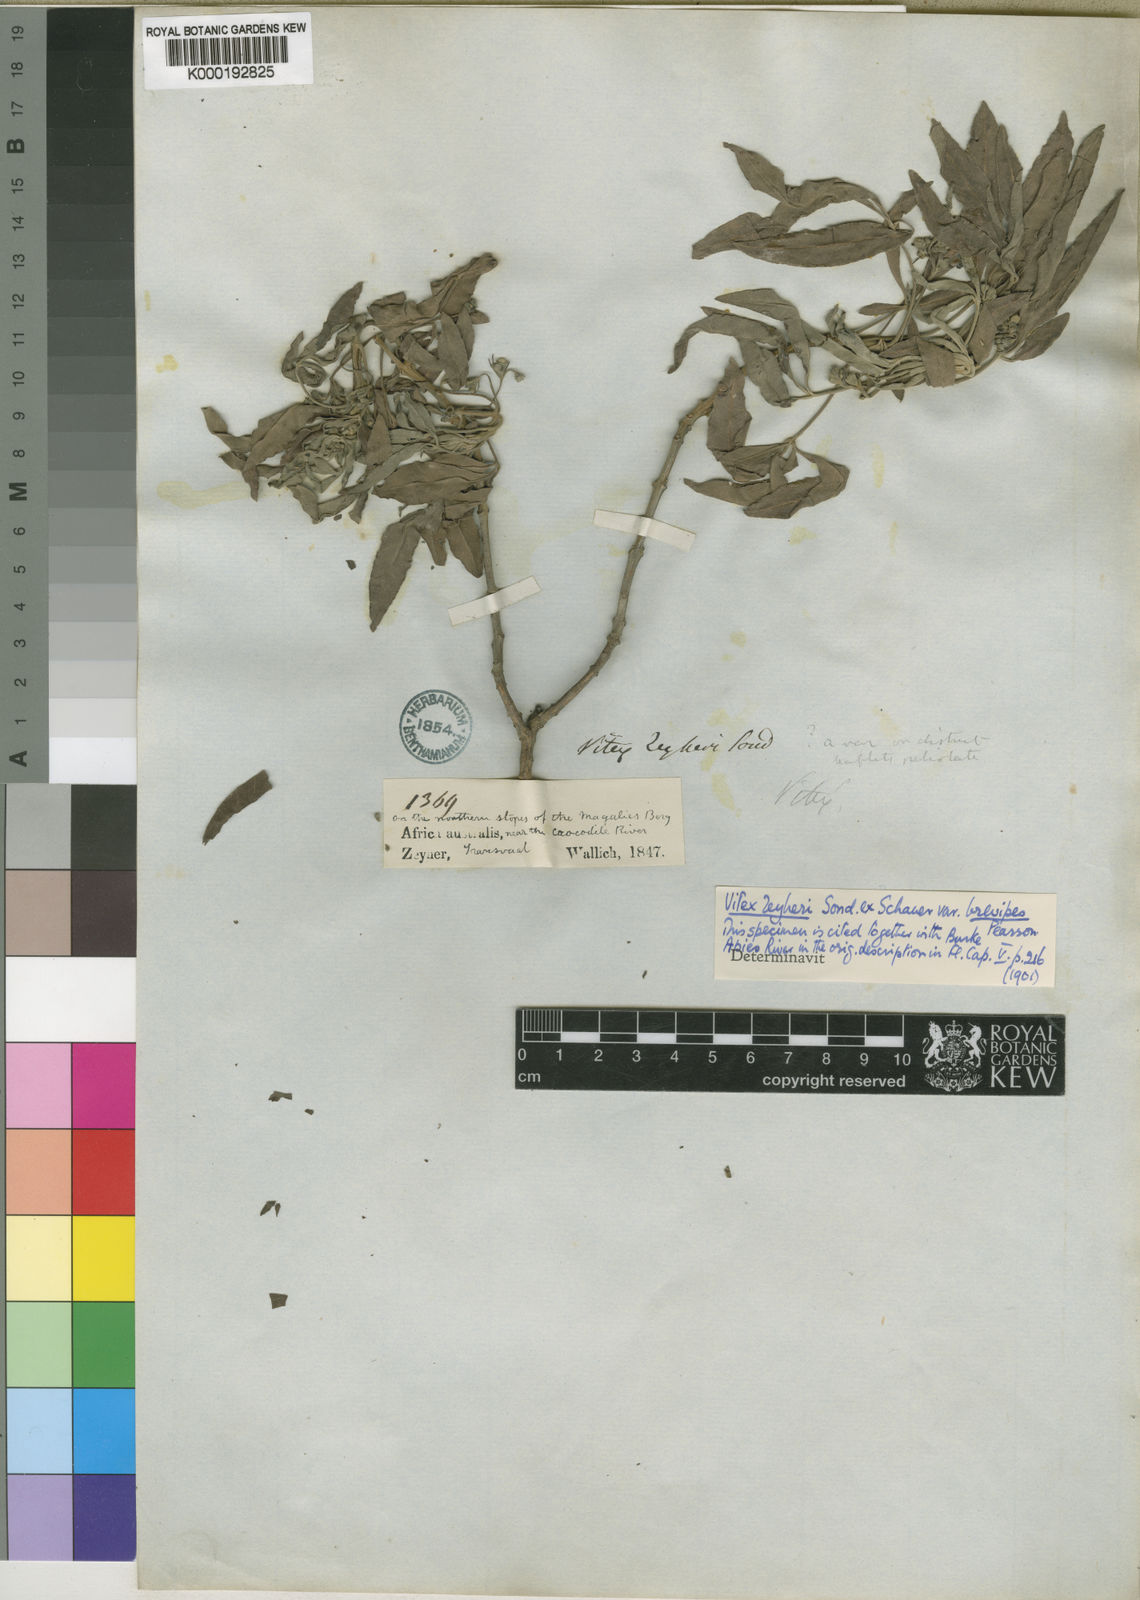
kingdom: Plantae
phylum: Tracheophyta
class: Magnoliopsida
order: Lamiales
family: Lamiaceae
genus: Vitex
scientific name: Vitex zeyheri
